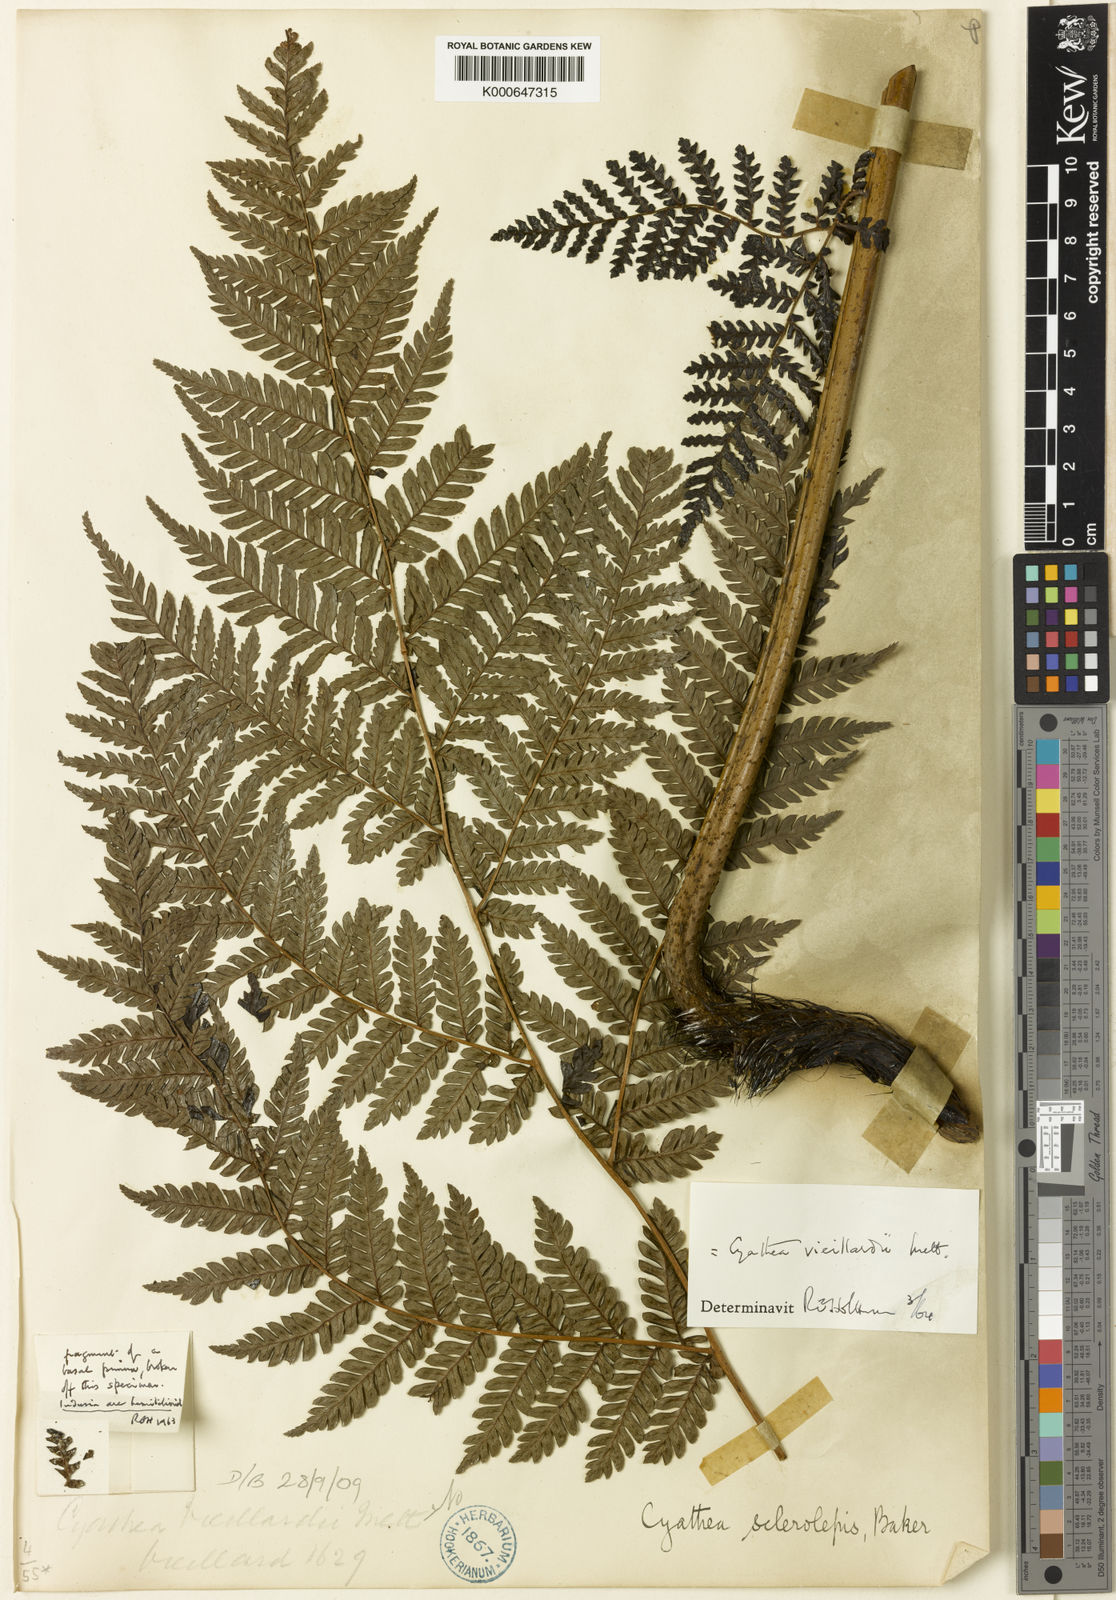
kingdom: Plantae
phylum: Tracheophyta
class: Polypodiopsida
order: Cyatheales
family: Cyatheaceae
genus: Alsophila
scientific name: Alsophila vieillardii
